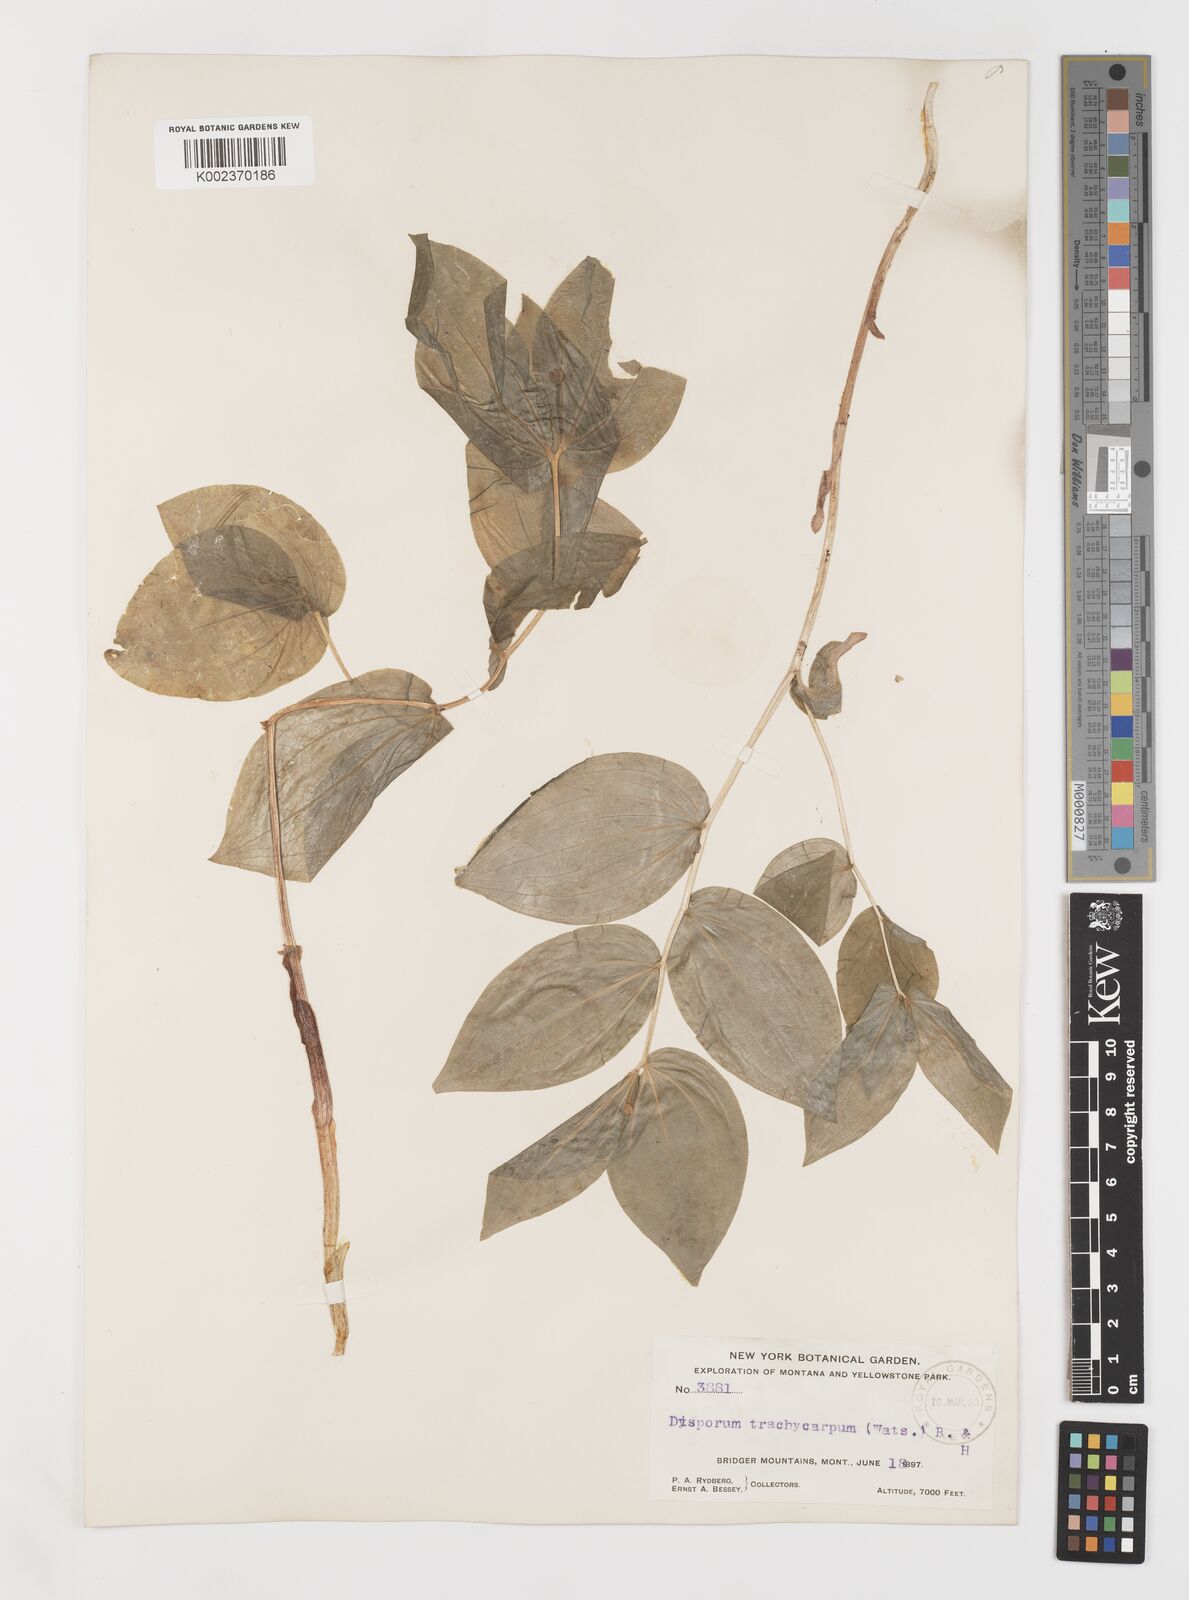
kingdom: Plantae
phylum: Tracheophyta
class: Liliopsida
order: Liliales
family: Liliaceae
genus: Prosartes
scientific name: Prosartes trachycarpa
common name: Rough-fruit fairy-bells
